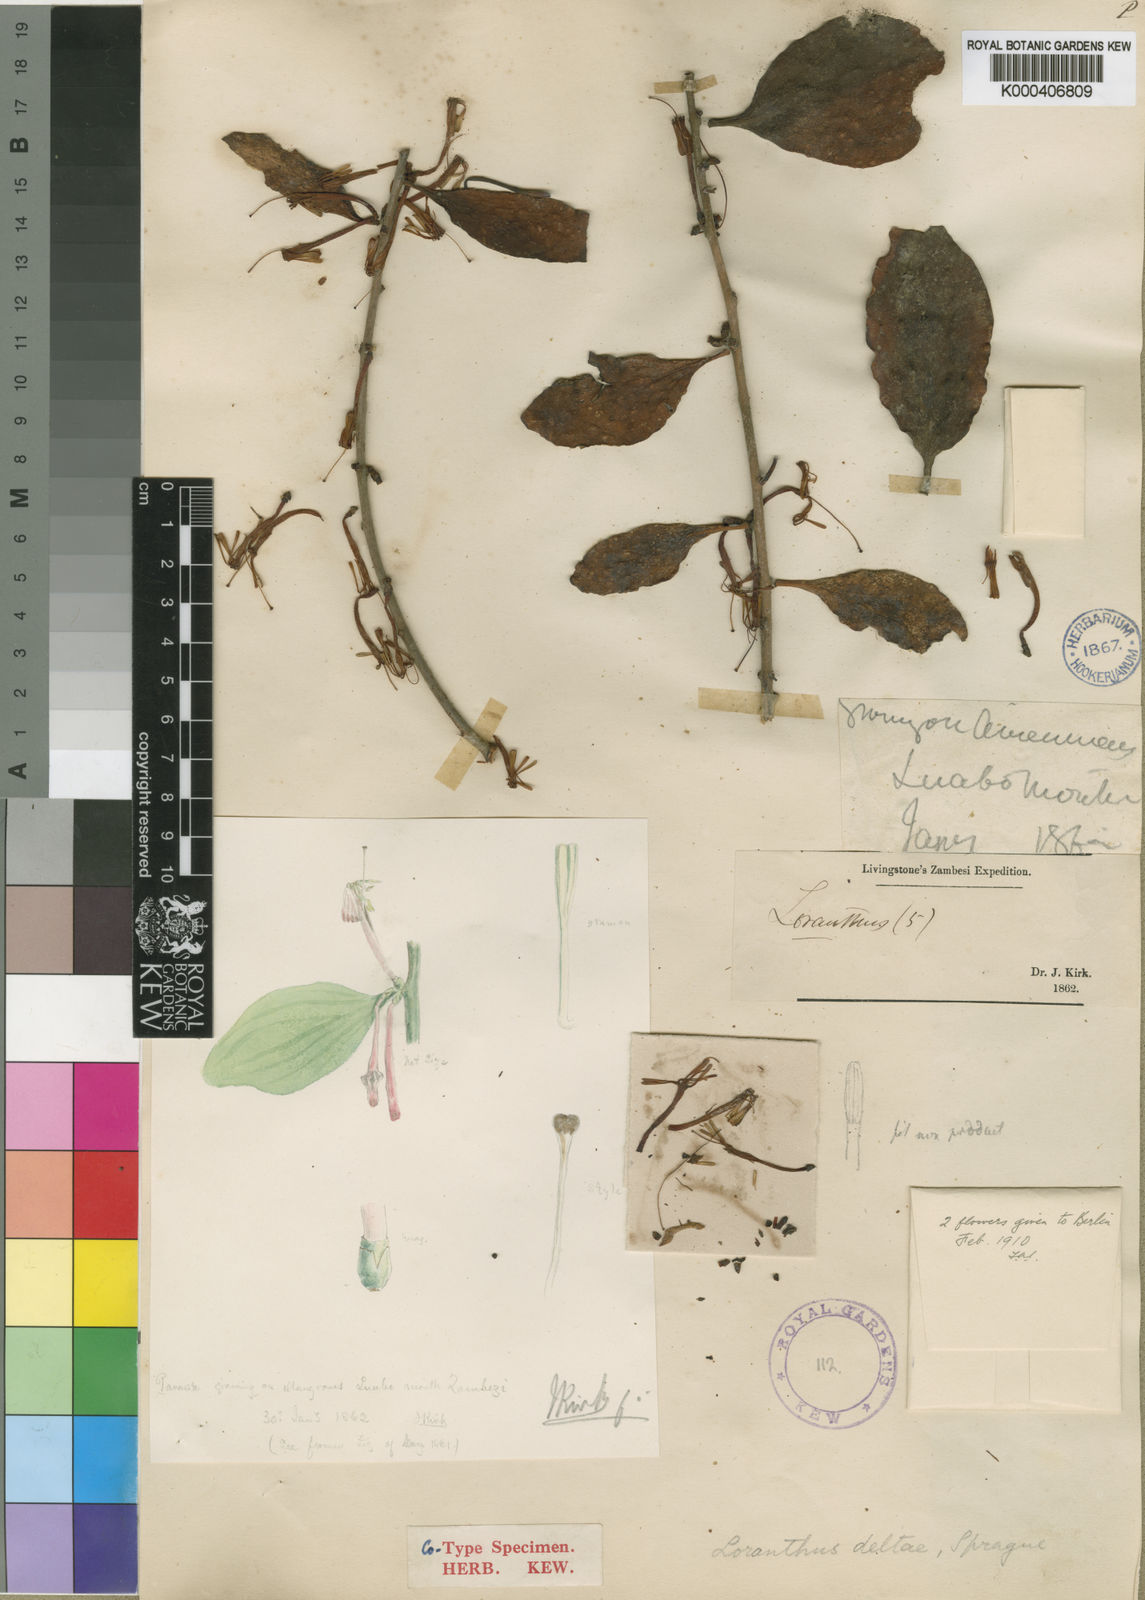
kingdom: Plantae
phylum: Tracheophyta
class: Magnoliopsida
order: Santalales
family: Loranthaceae
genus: Agelanthus
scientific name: Agelanthus deltae
